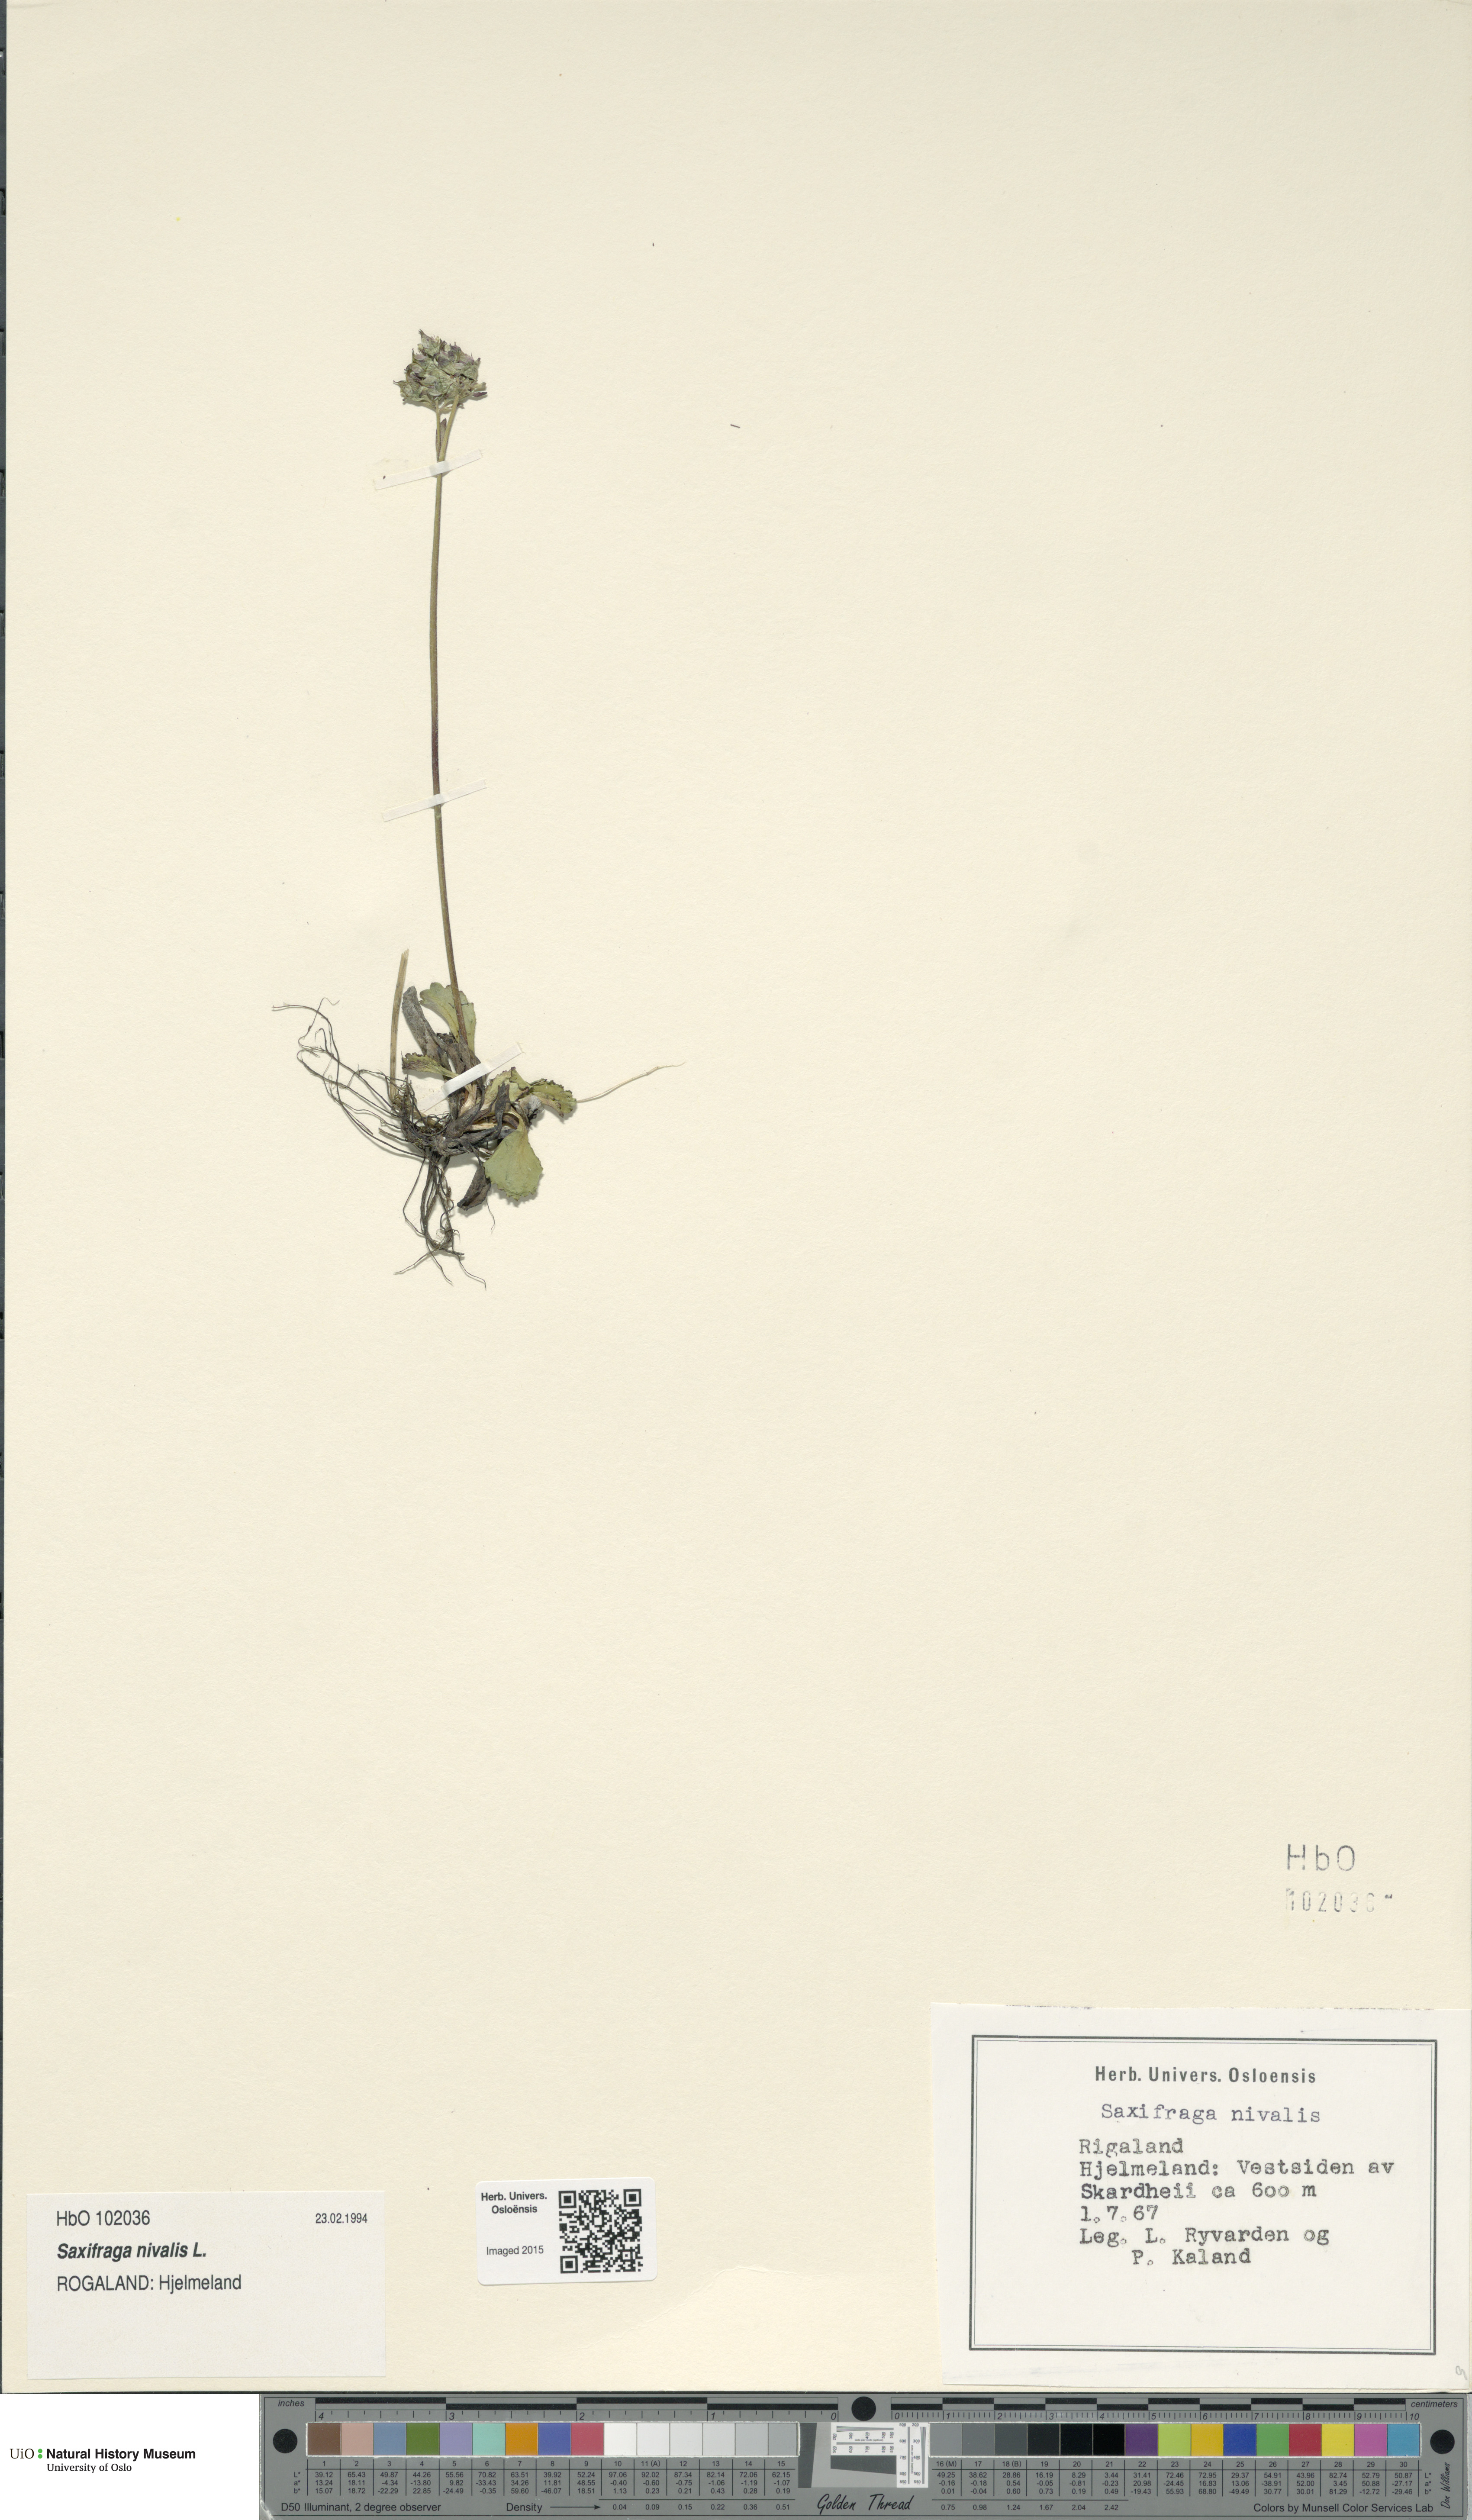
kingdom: Plantae
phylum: Tracheophyta
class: Magnoliopsida
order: Saxifragales
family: Saxifragaceae
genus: Micranthes
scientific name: Micranthes nivalis
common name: Alpine saxifrage
